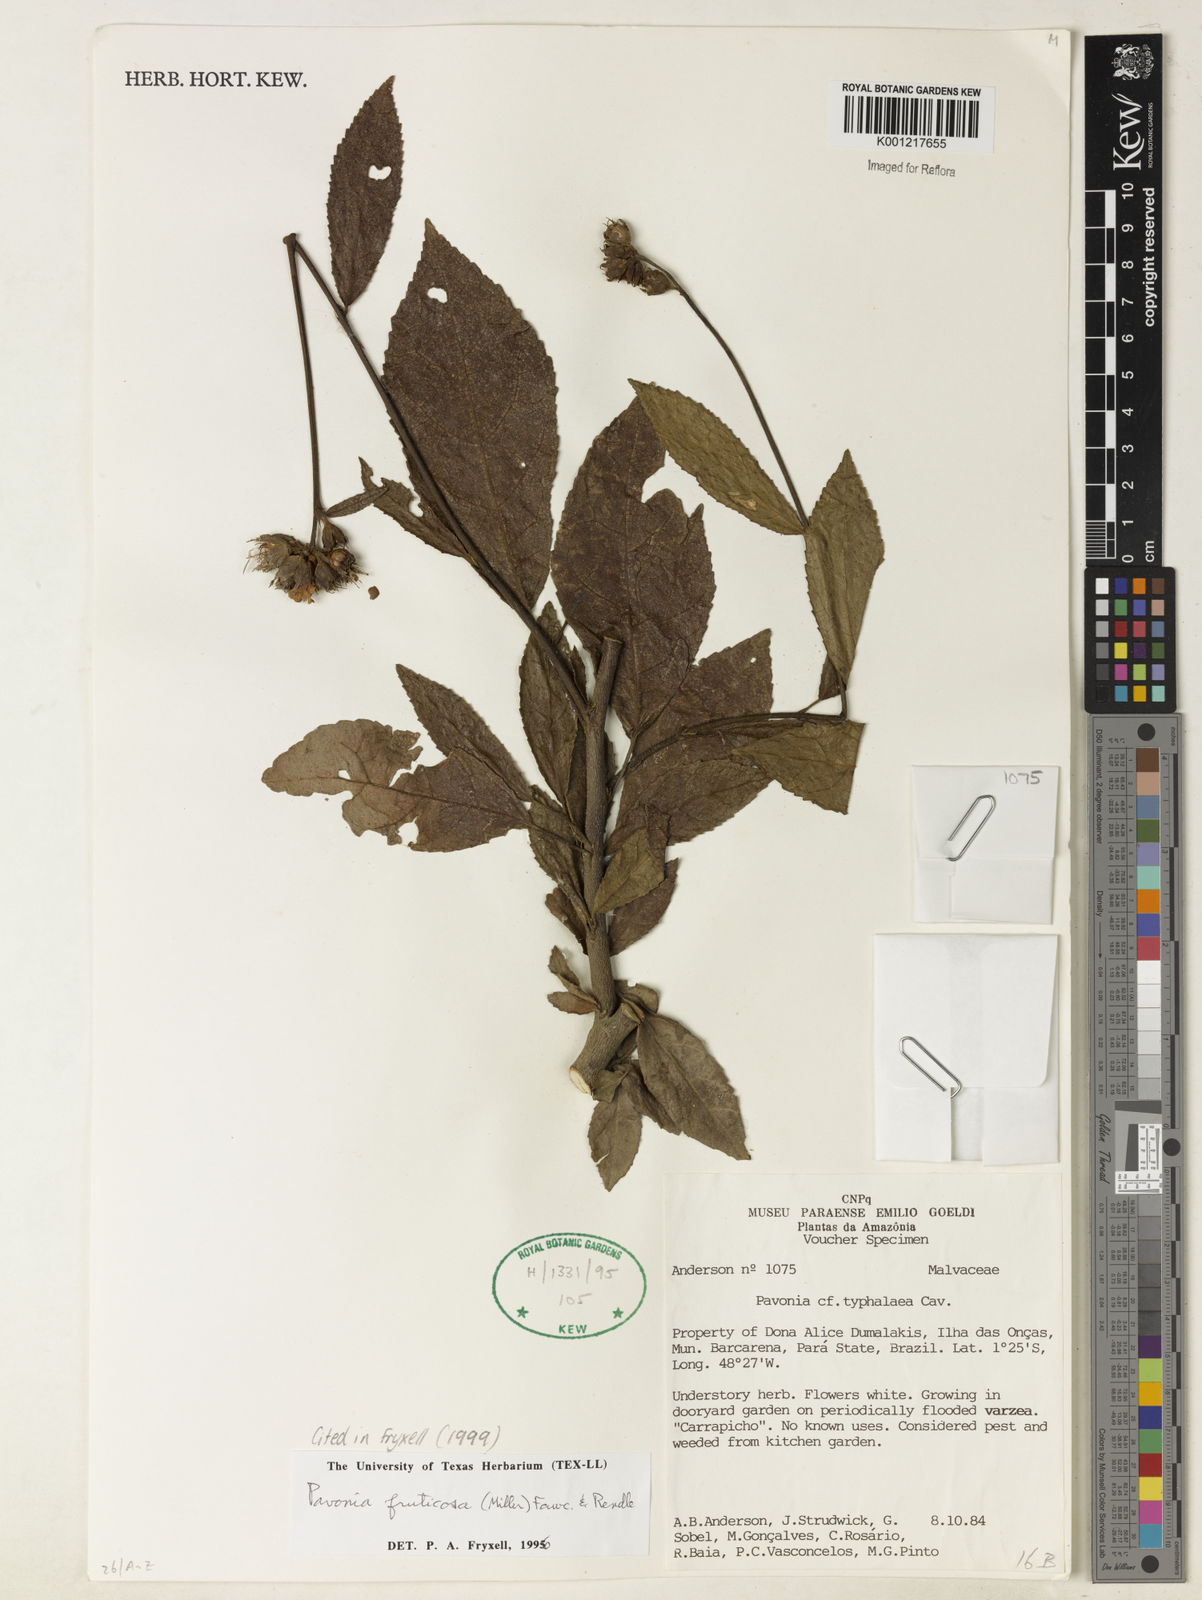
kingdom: Plantae
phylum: Tracheophyta
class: Magnoliopsida
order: Malvales
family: Malvaceae
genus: Pavonia
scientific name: Pavonia fruticosa
